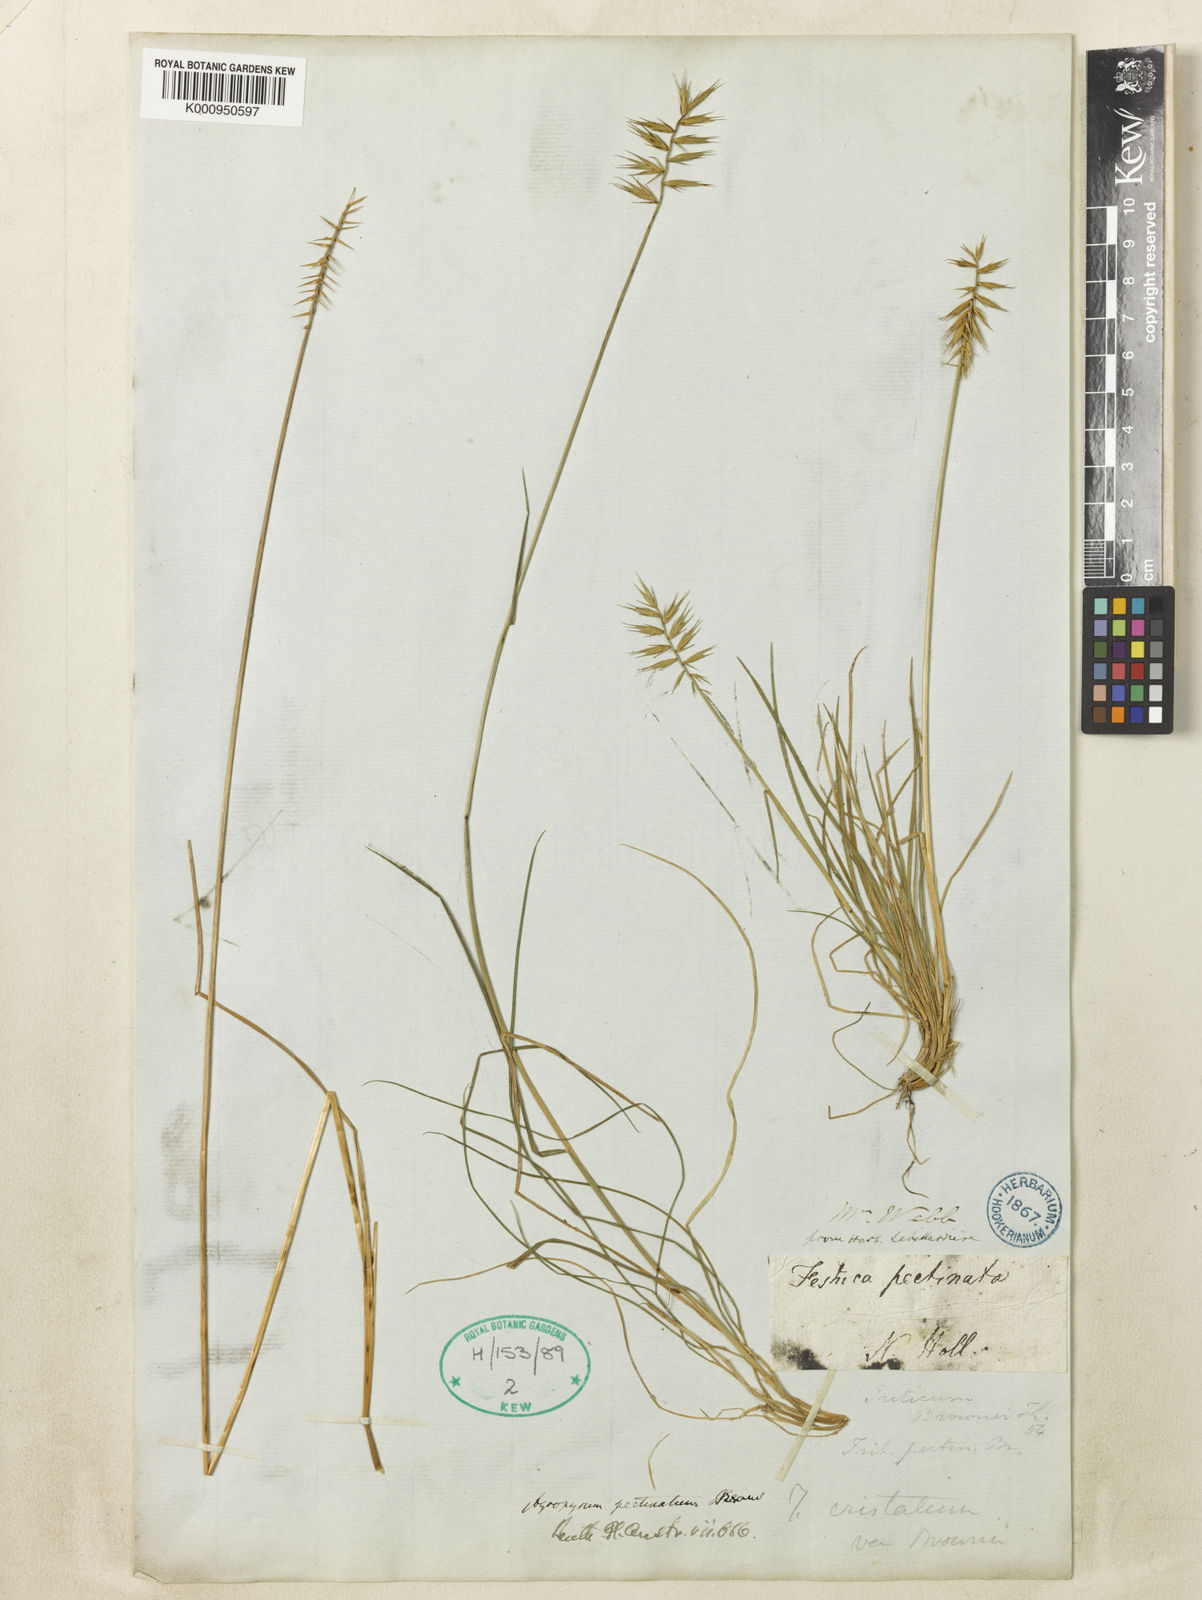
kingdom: Plantae
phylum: Tracheophyta
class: Liliopsida
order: Poales
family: Poaceae
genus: Agropyron
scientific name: Agropyron cristatum
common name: Crested wheatgrass
